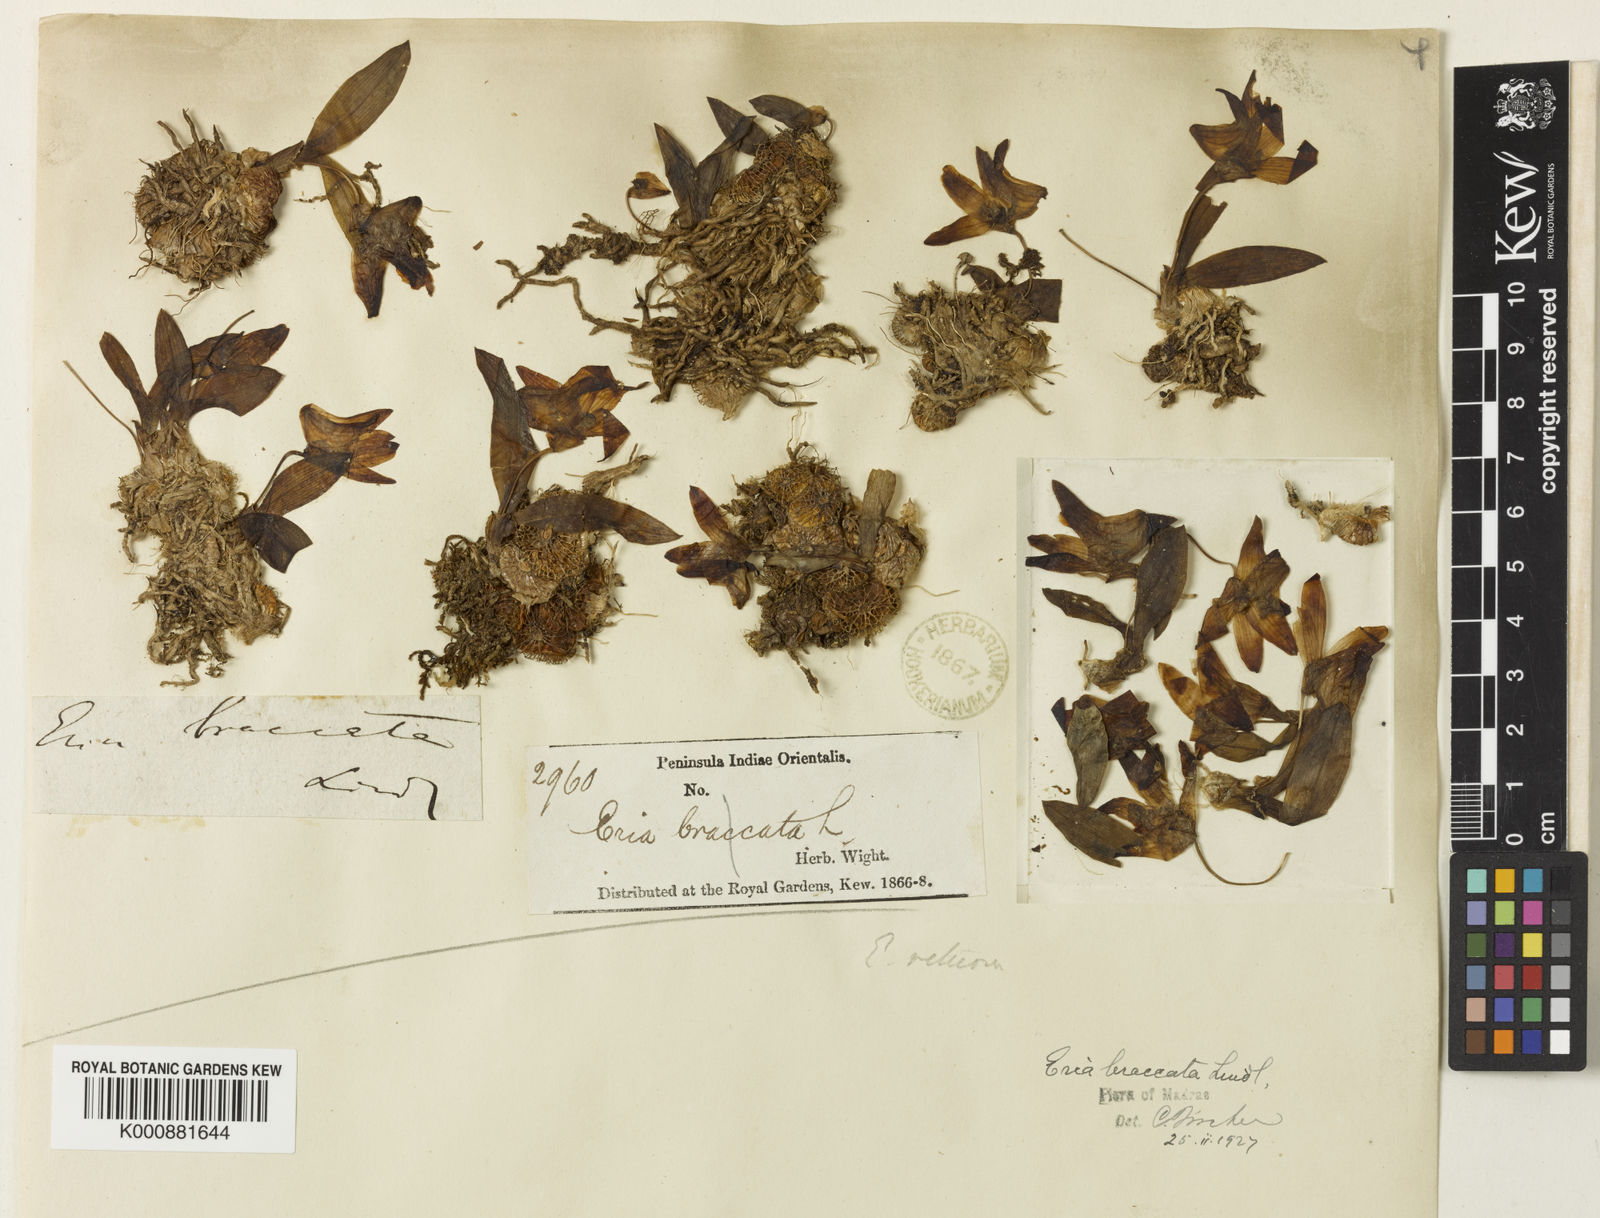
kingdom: Plantae
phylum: Tracheophyta
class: Liliopsida
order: Asparagales
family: Orchidaceae
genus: Porpax
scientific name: Porpax braccata
